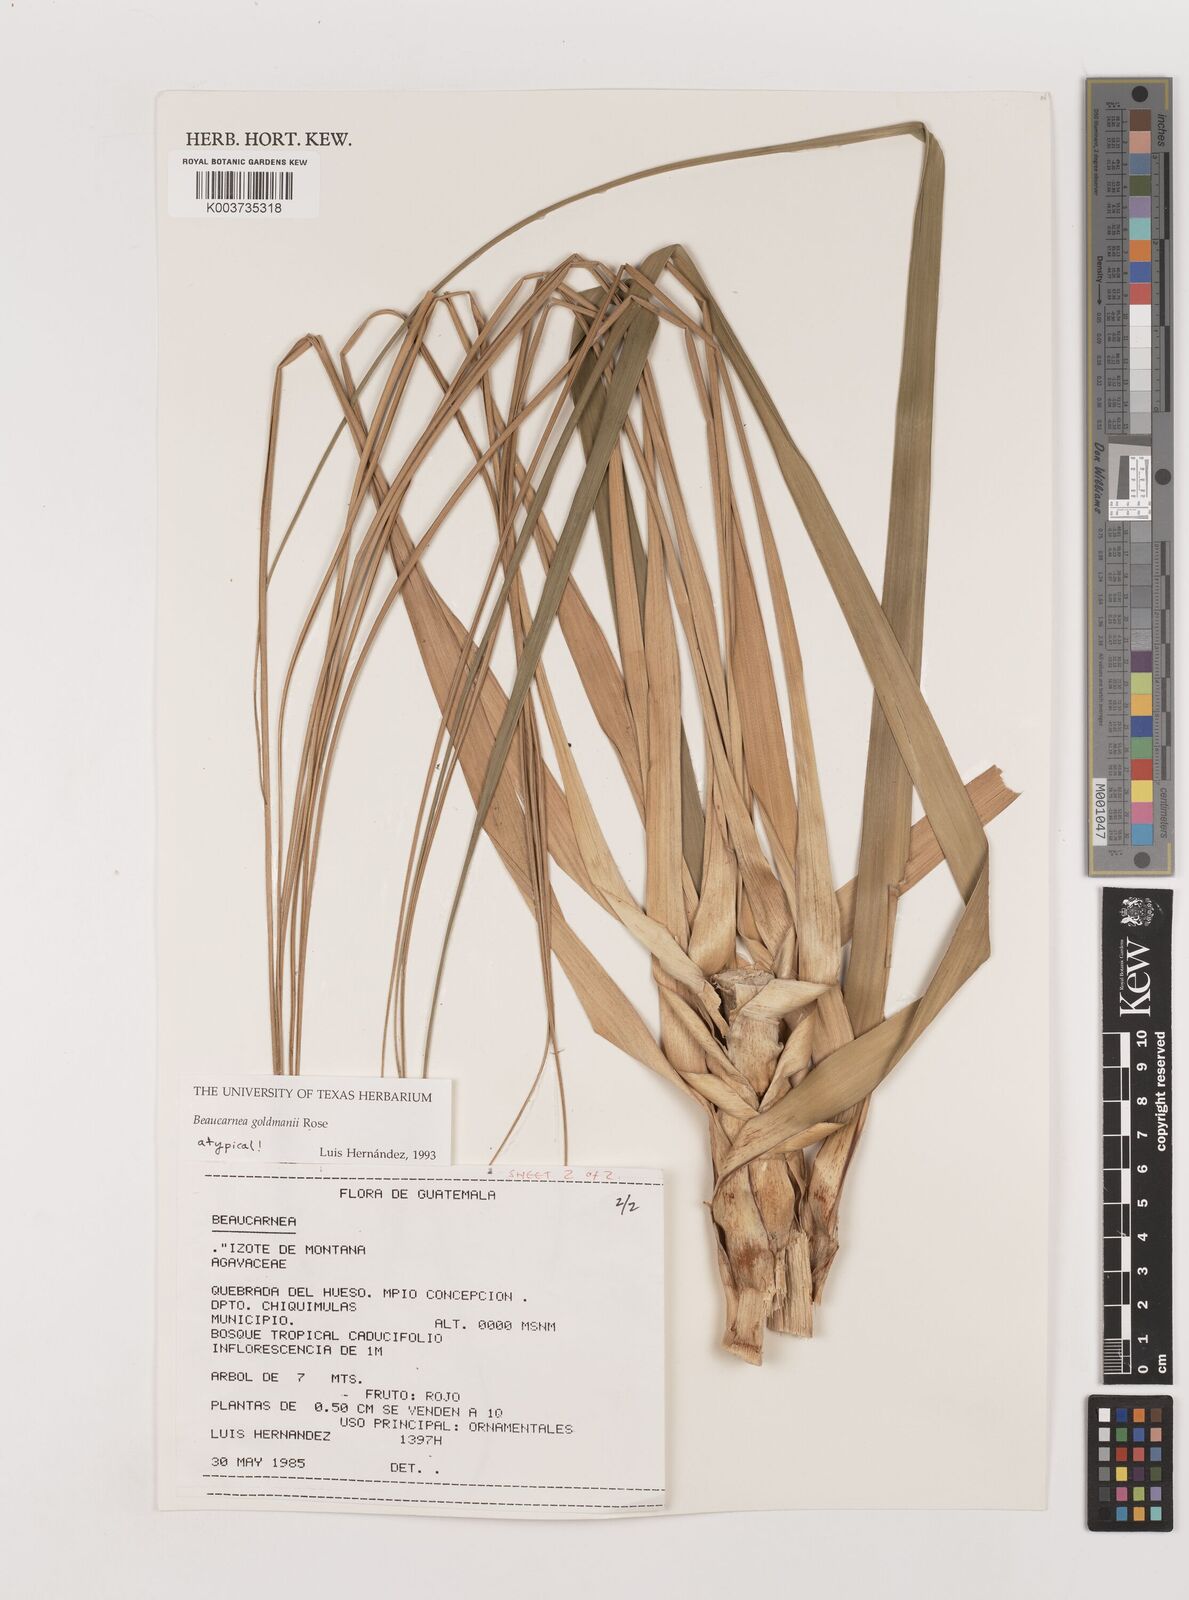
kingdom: Plantae
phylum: Tracheophyta
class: Liliopsida
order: Asparagales
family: Asparagaceae
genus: Beaucarnea
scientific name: Beaucarnea goldmanii
